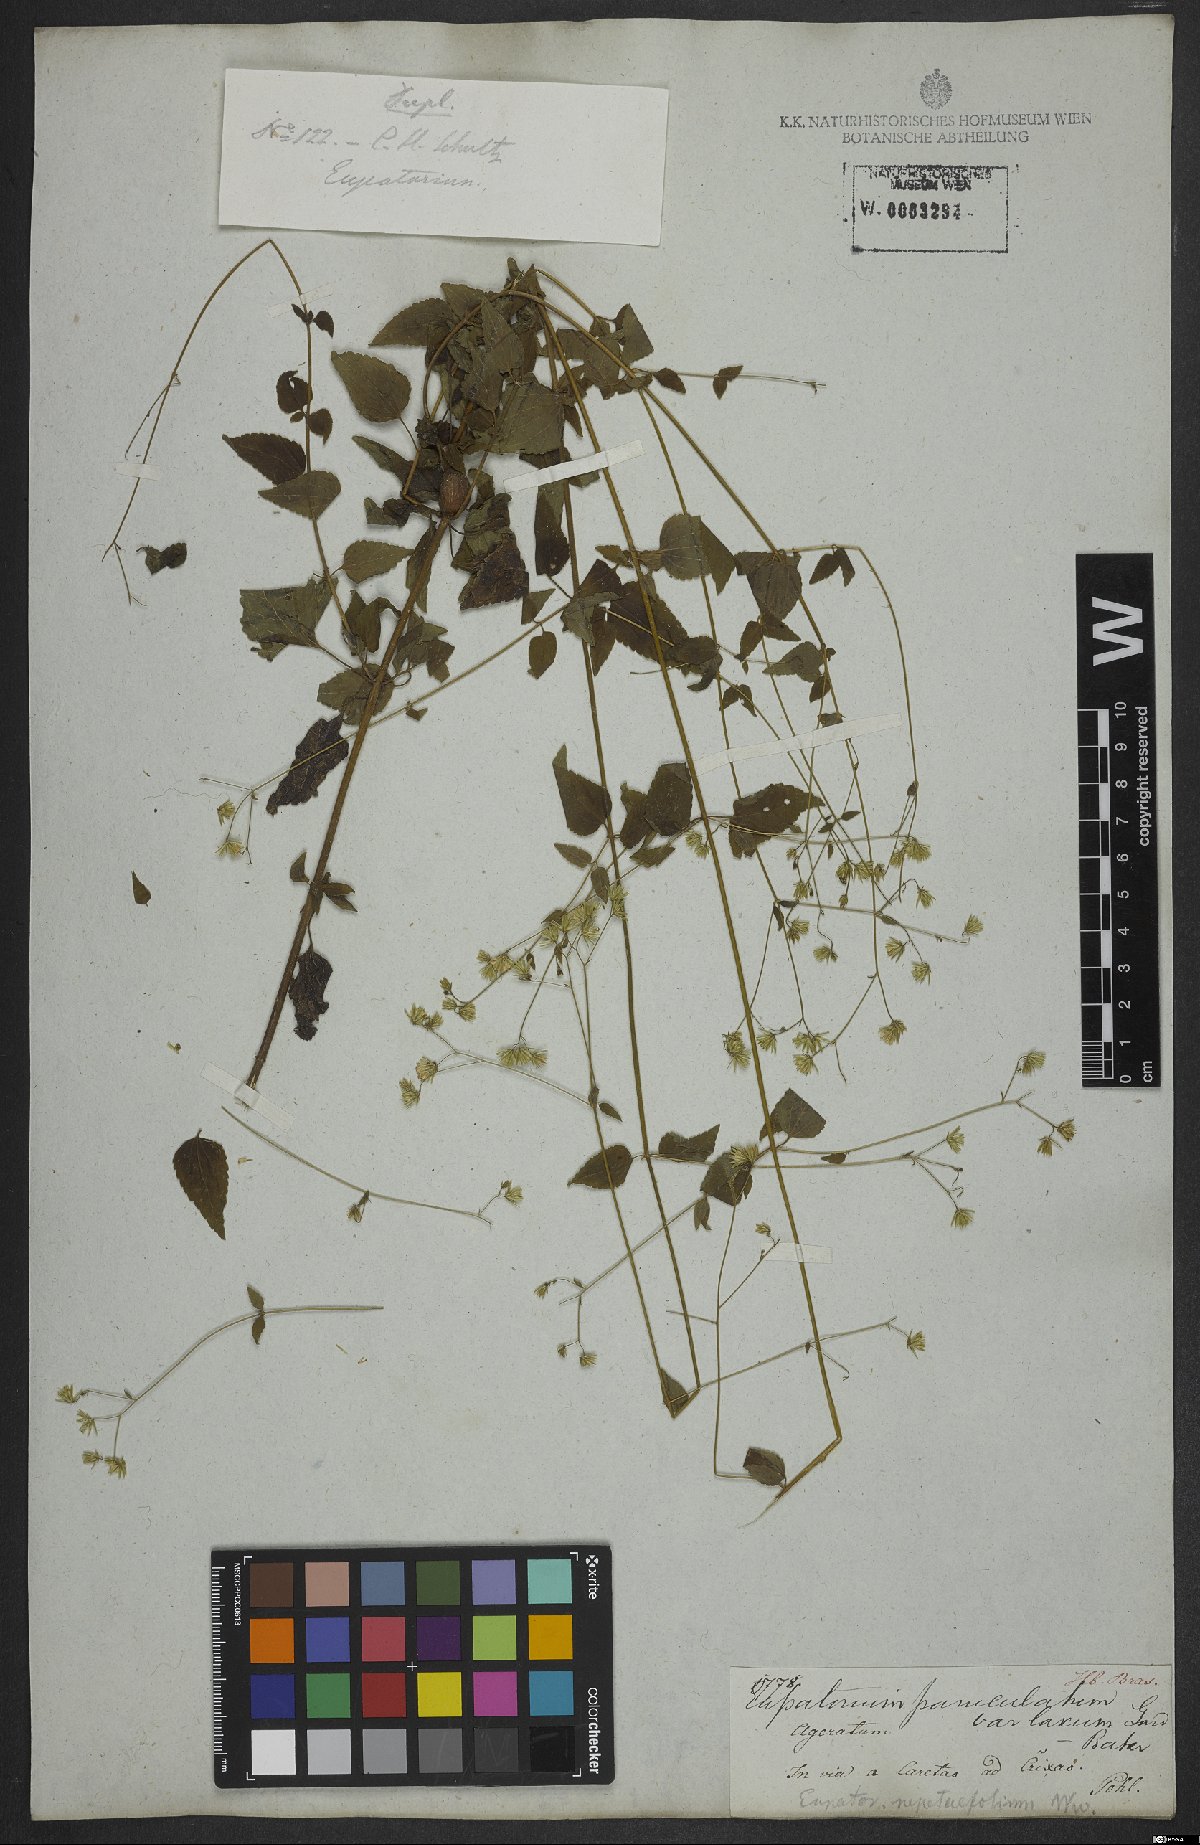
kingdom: Plantae
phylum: Tracheophyta
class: Magnoliopsida
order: Asterales
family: Asteraceae
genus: Fleischmannia
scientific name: Fleischmannia microstemon
